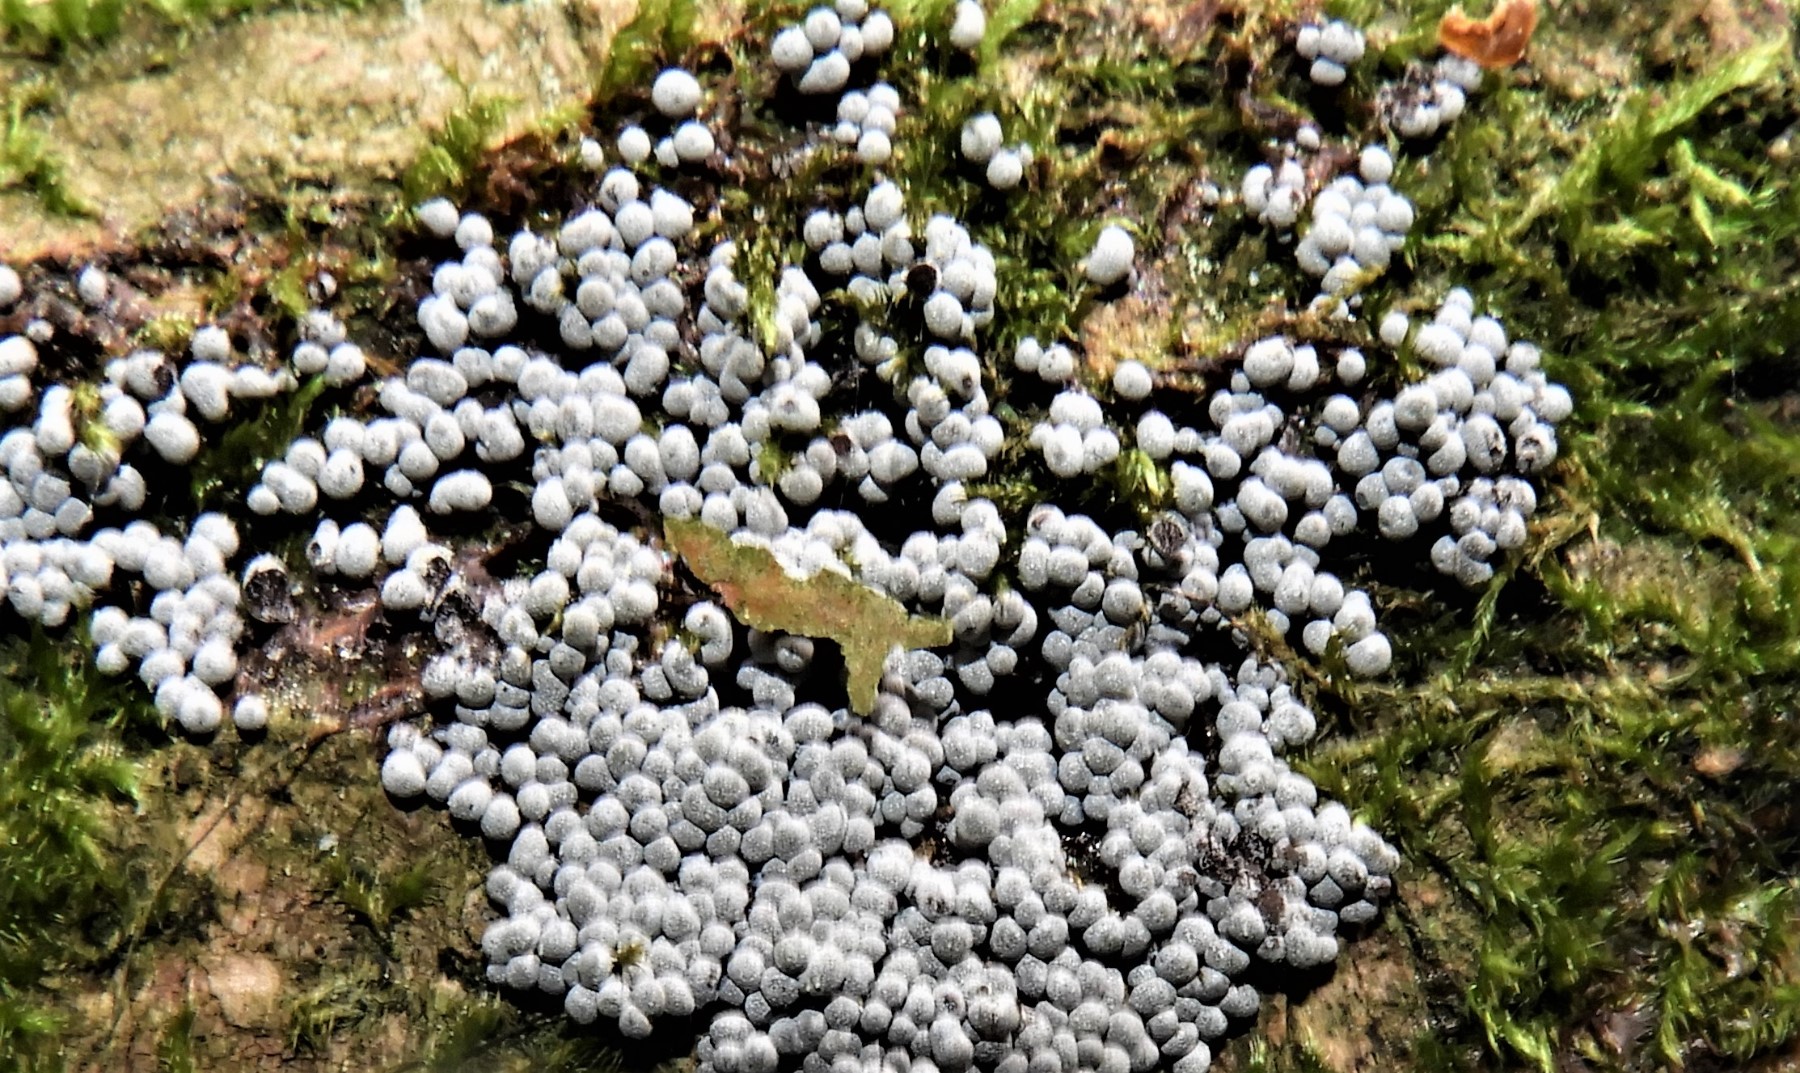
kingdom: Protozoa
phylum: Mycetozoa
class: Myxomycetes
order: Physarales
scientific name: Physarales
